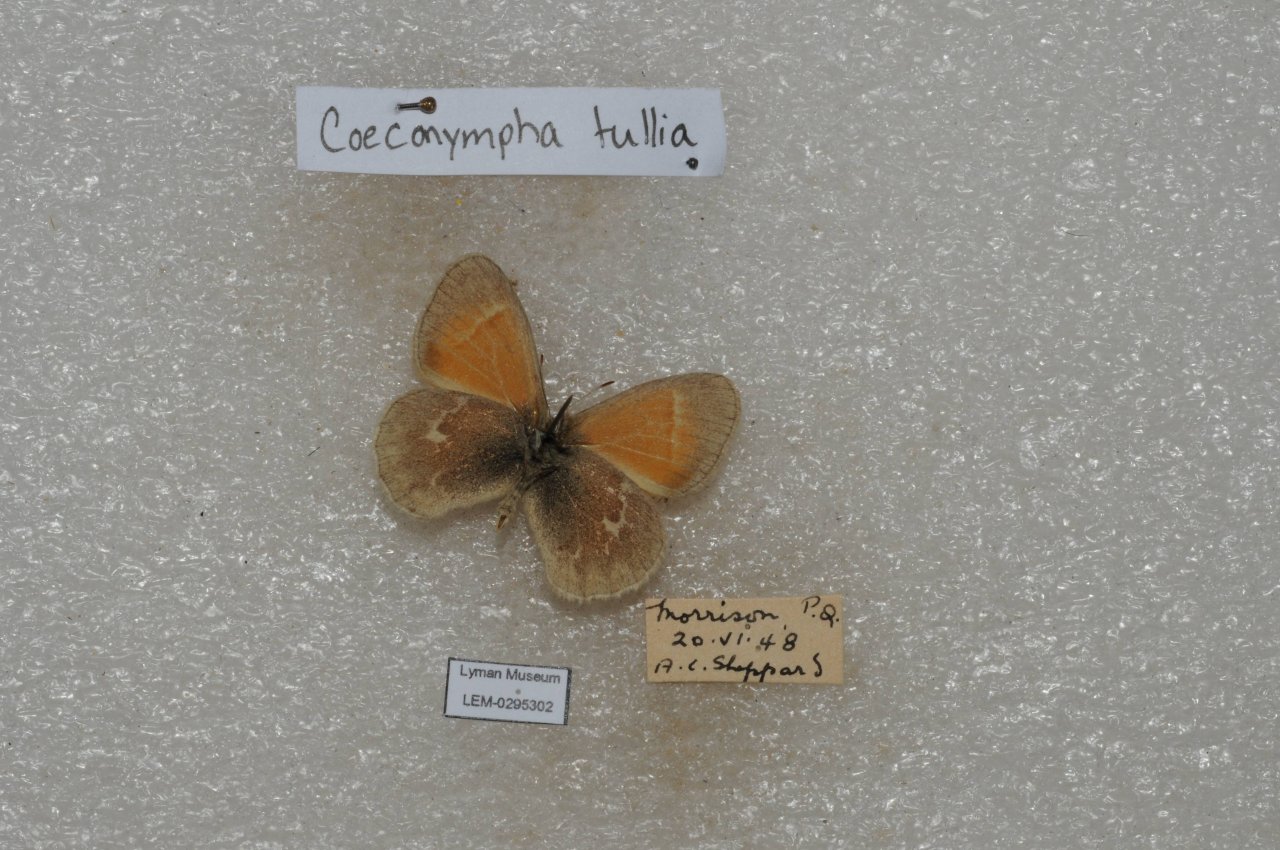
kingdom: Animalia
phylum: Arthropoda
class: Insecta
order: Lepidoptera
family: Nymphalidae
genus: Coenonympha
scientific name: Coenonympha tullia
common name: Large Heath
